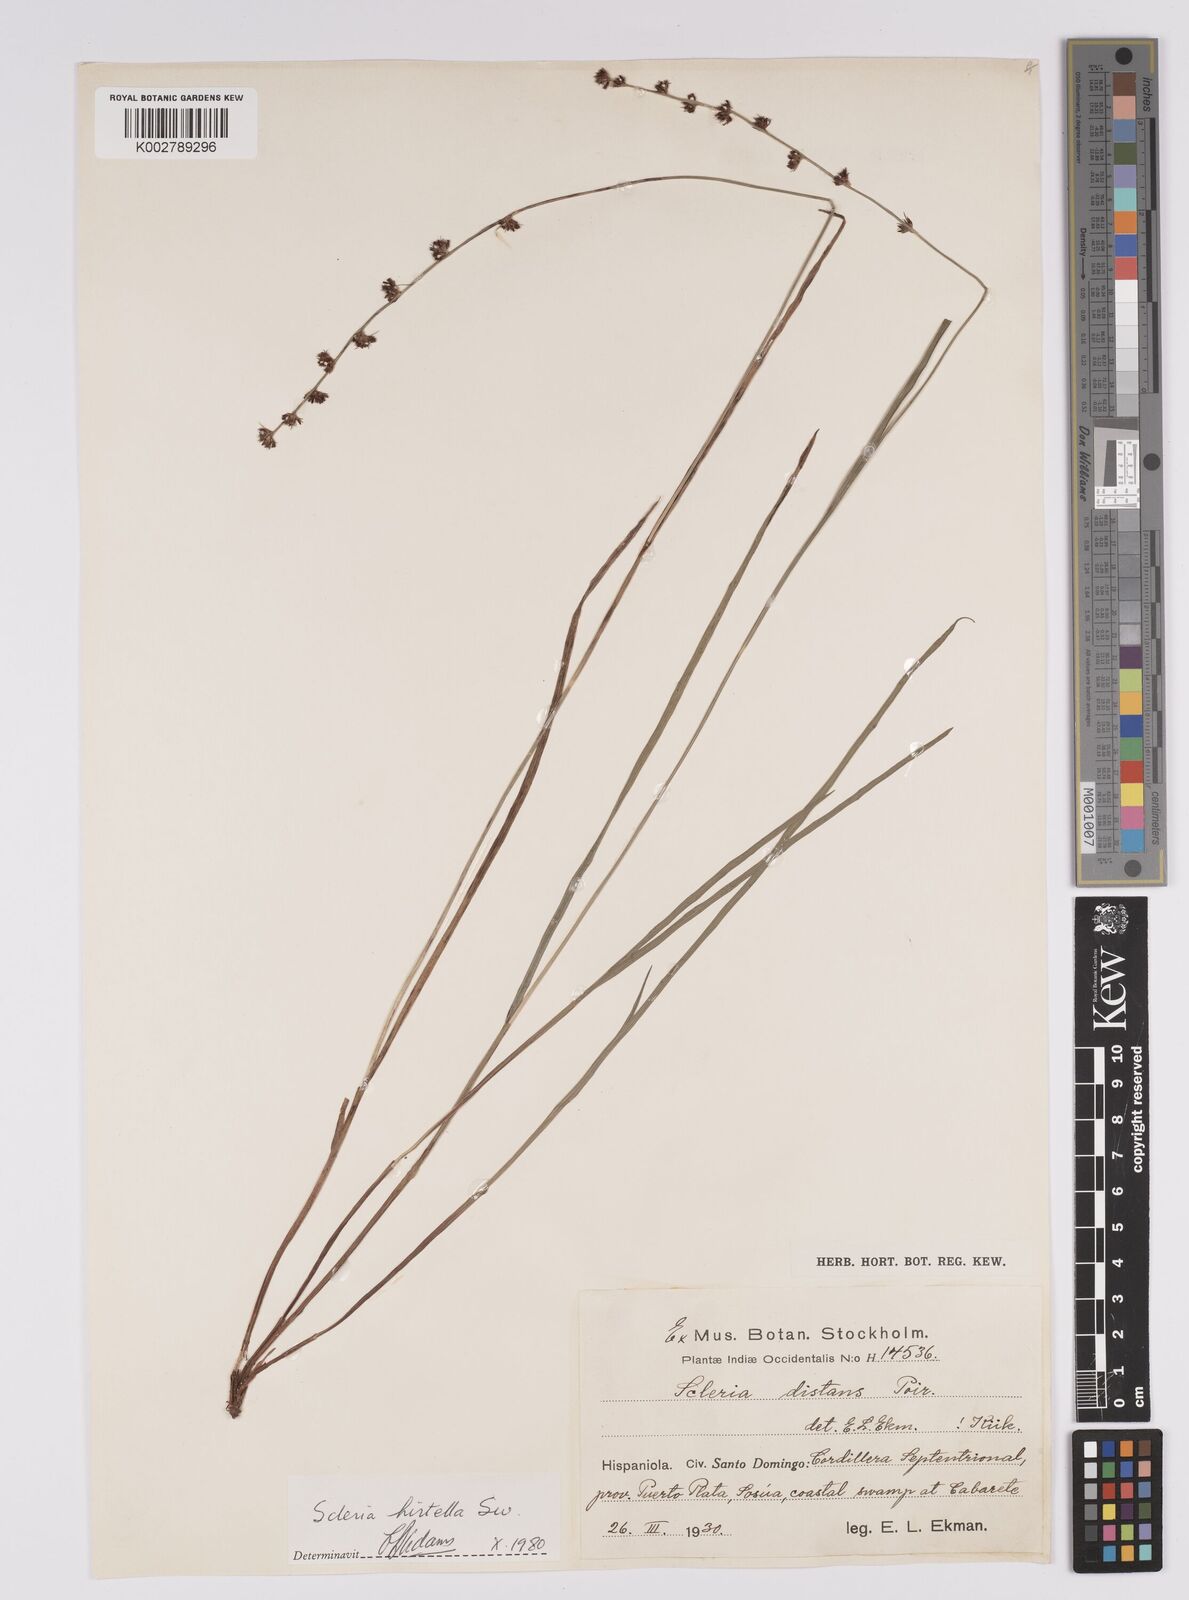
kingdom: Plantae
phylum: Tracheophyta
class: Liliopsida
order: Poales
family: Cyperaceae
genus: Scleria
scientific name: Scleria hirtella
